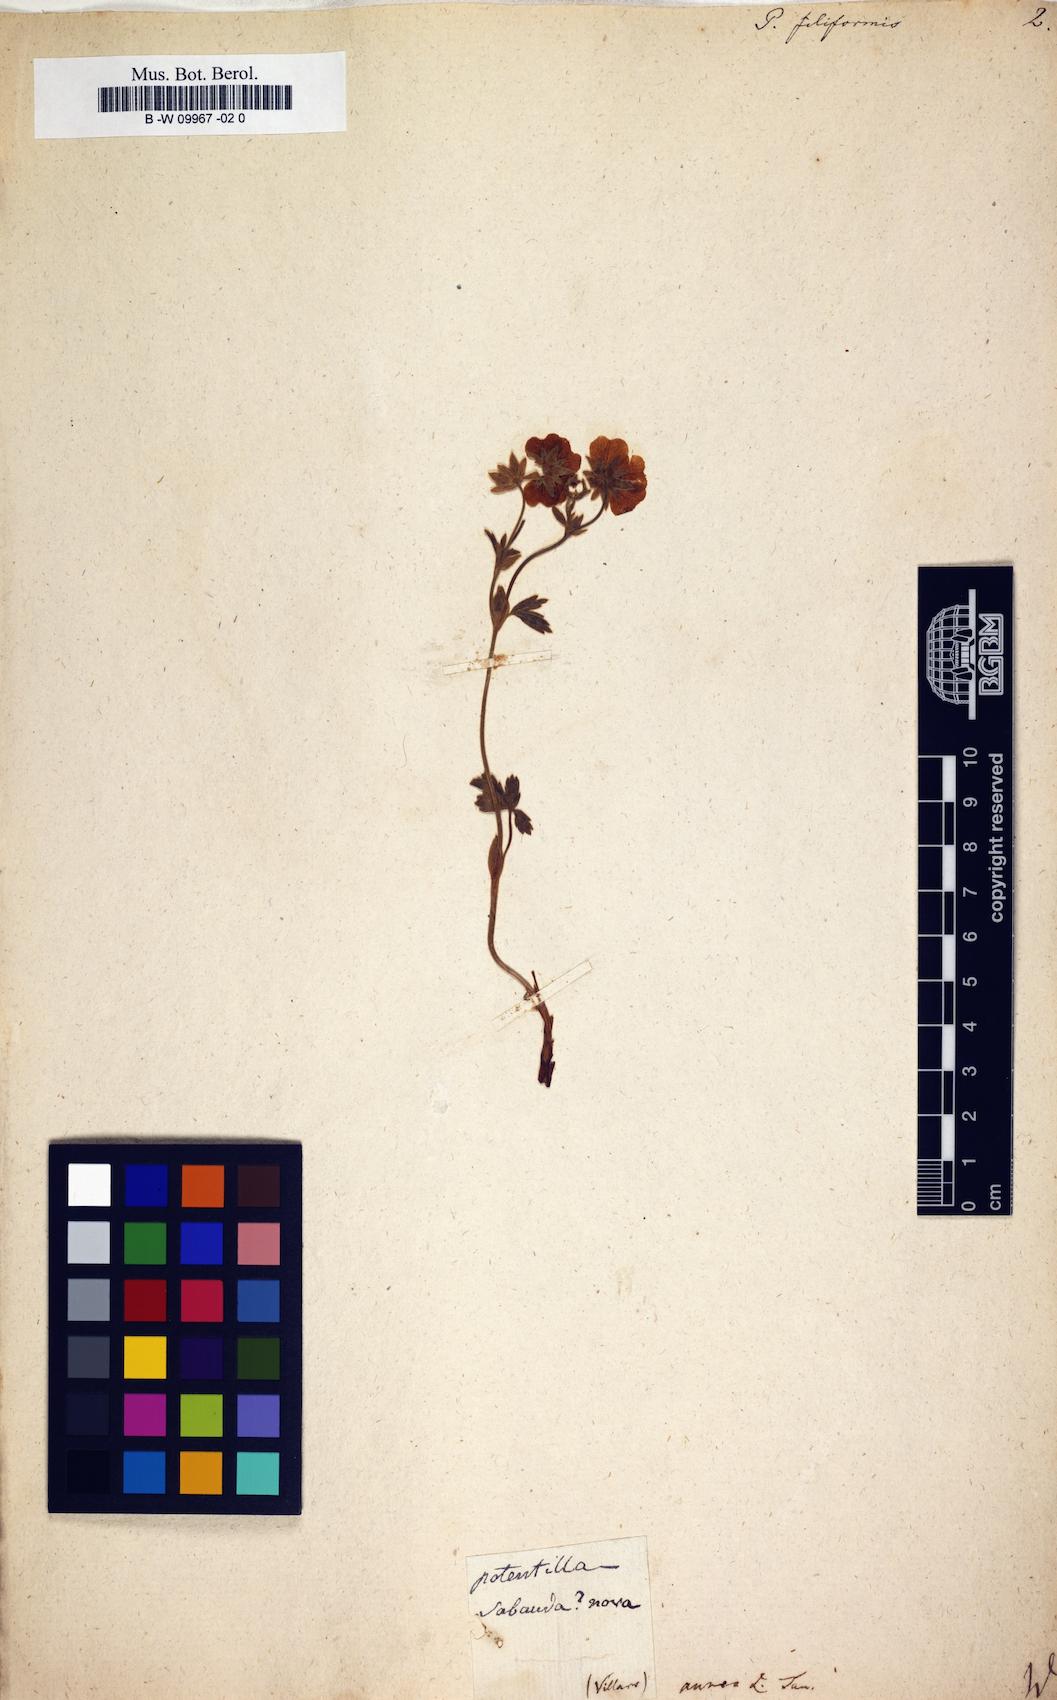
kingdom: Plantae
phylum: Tracheophyta
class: Magnoliopsida
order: Rosales
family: Rosaceae
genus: Potentilla
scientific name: Potentilla
